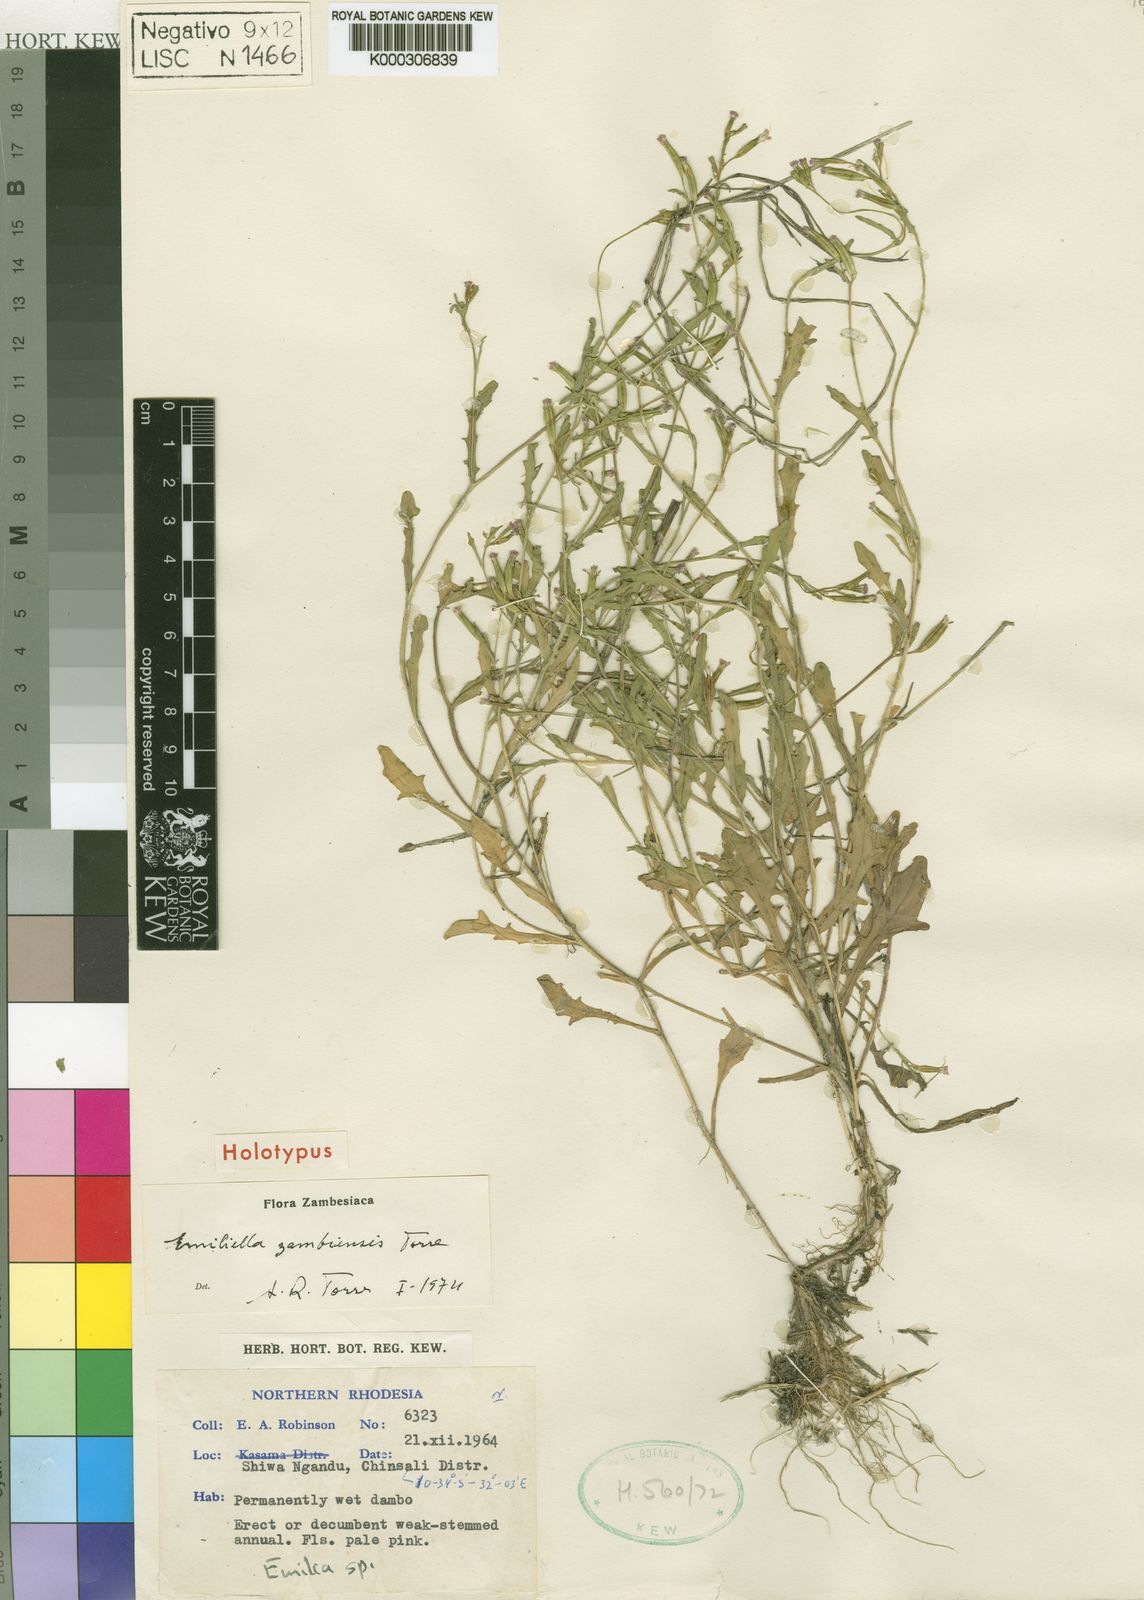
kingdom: Plantae
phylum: Tracheophyta
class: Magnoliopsida
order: Asterales
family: Asteraceae
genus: Emilia
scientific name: Emilia zambiensis
